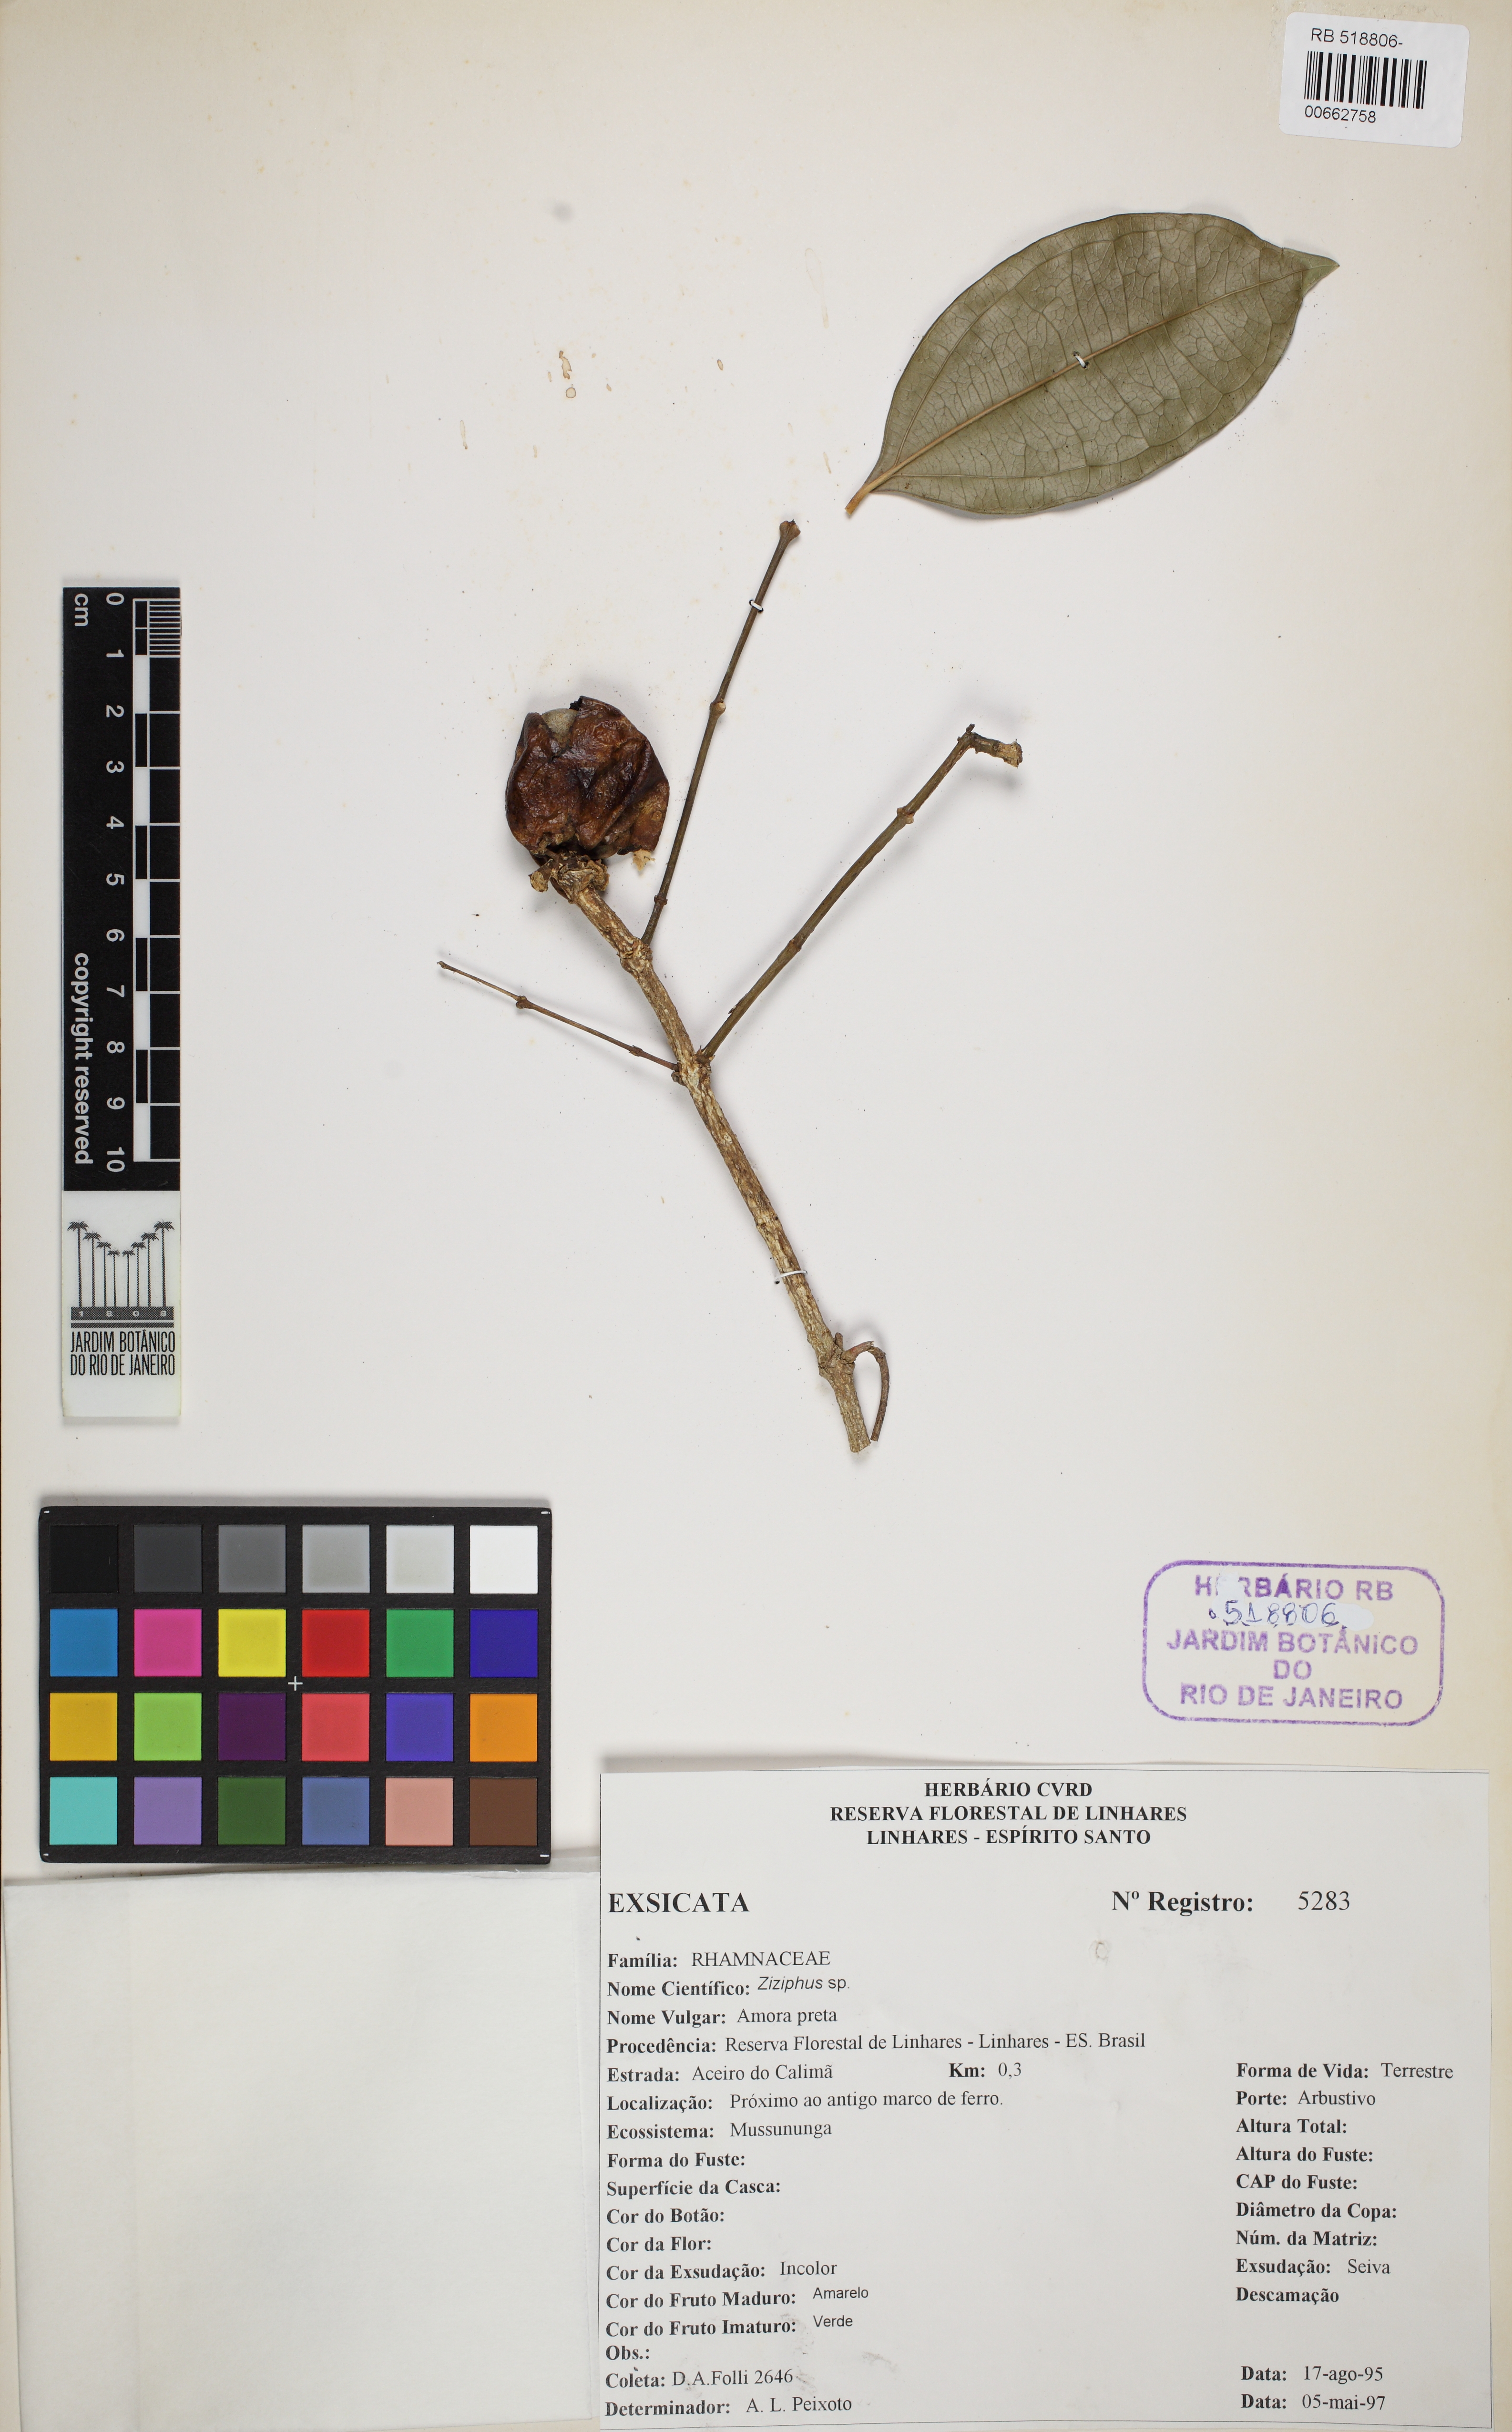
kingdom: Plantae
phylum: Tracheophyta
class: Magnoliopsida
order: Rosales
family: Rhamnaceae
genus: Ziziphus
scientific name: Ziziphus
